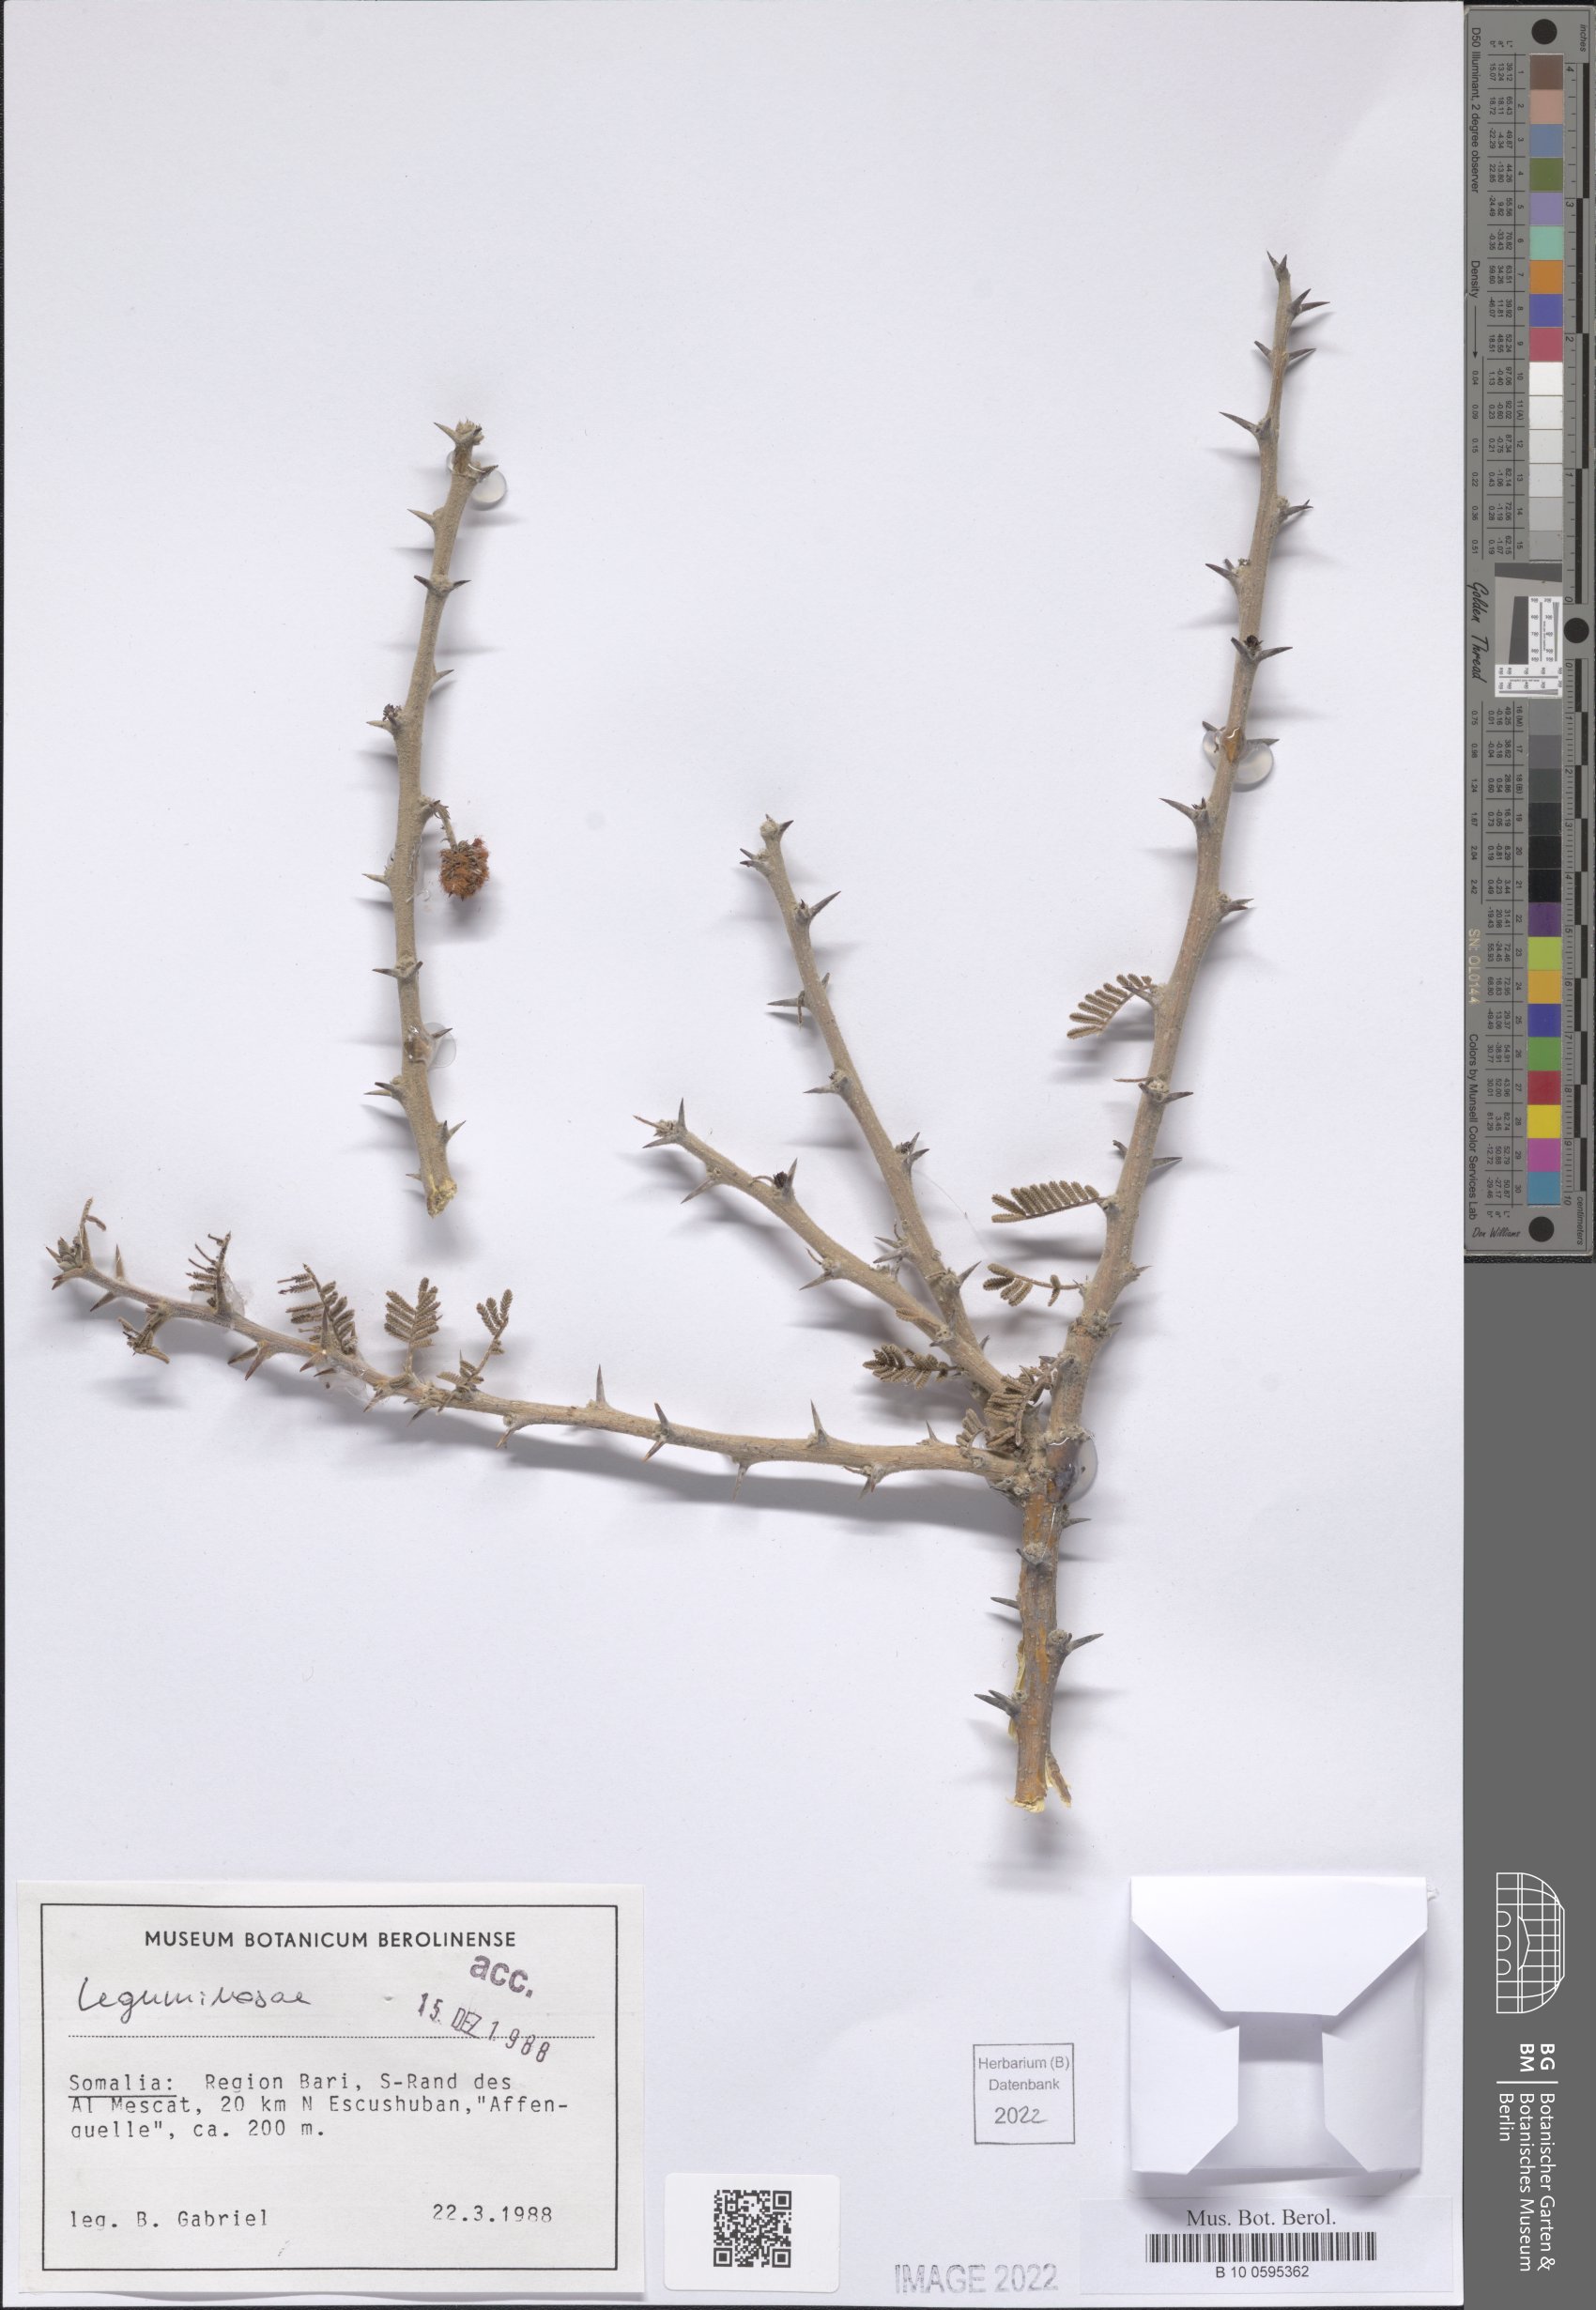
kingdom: Plantae
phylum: Tracheophyta
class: Magnoliopsida
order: Fabales
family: Fabaceae
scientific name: Fabaceae
